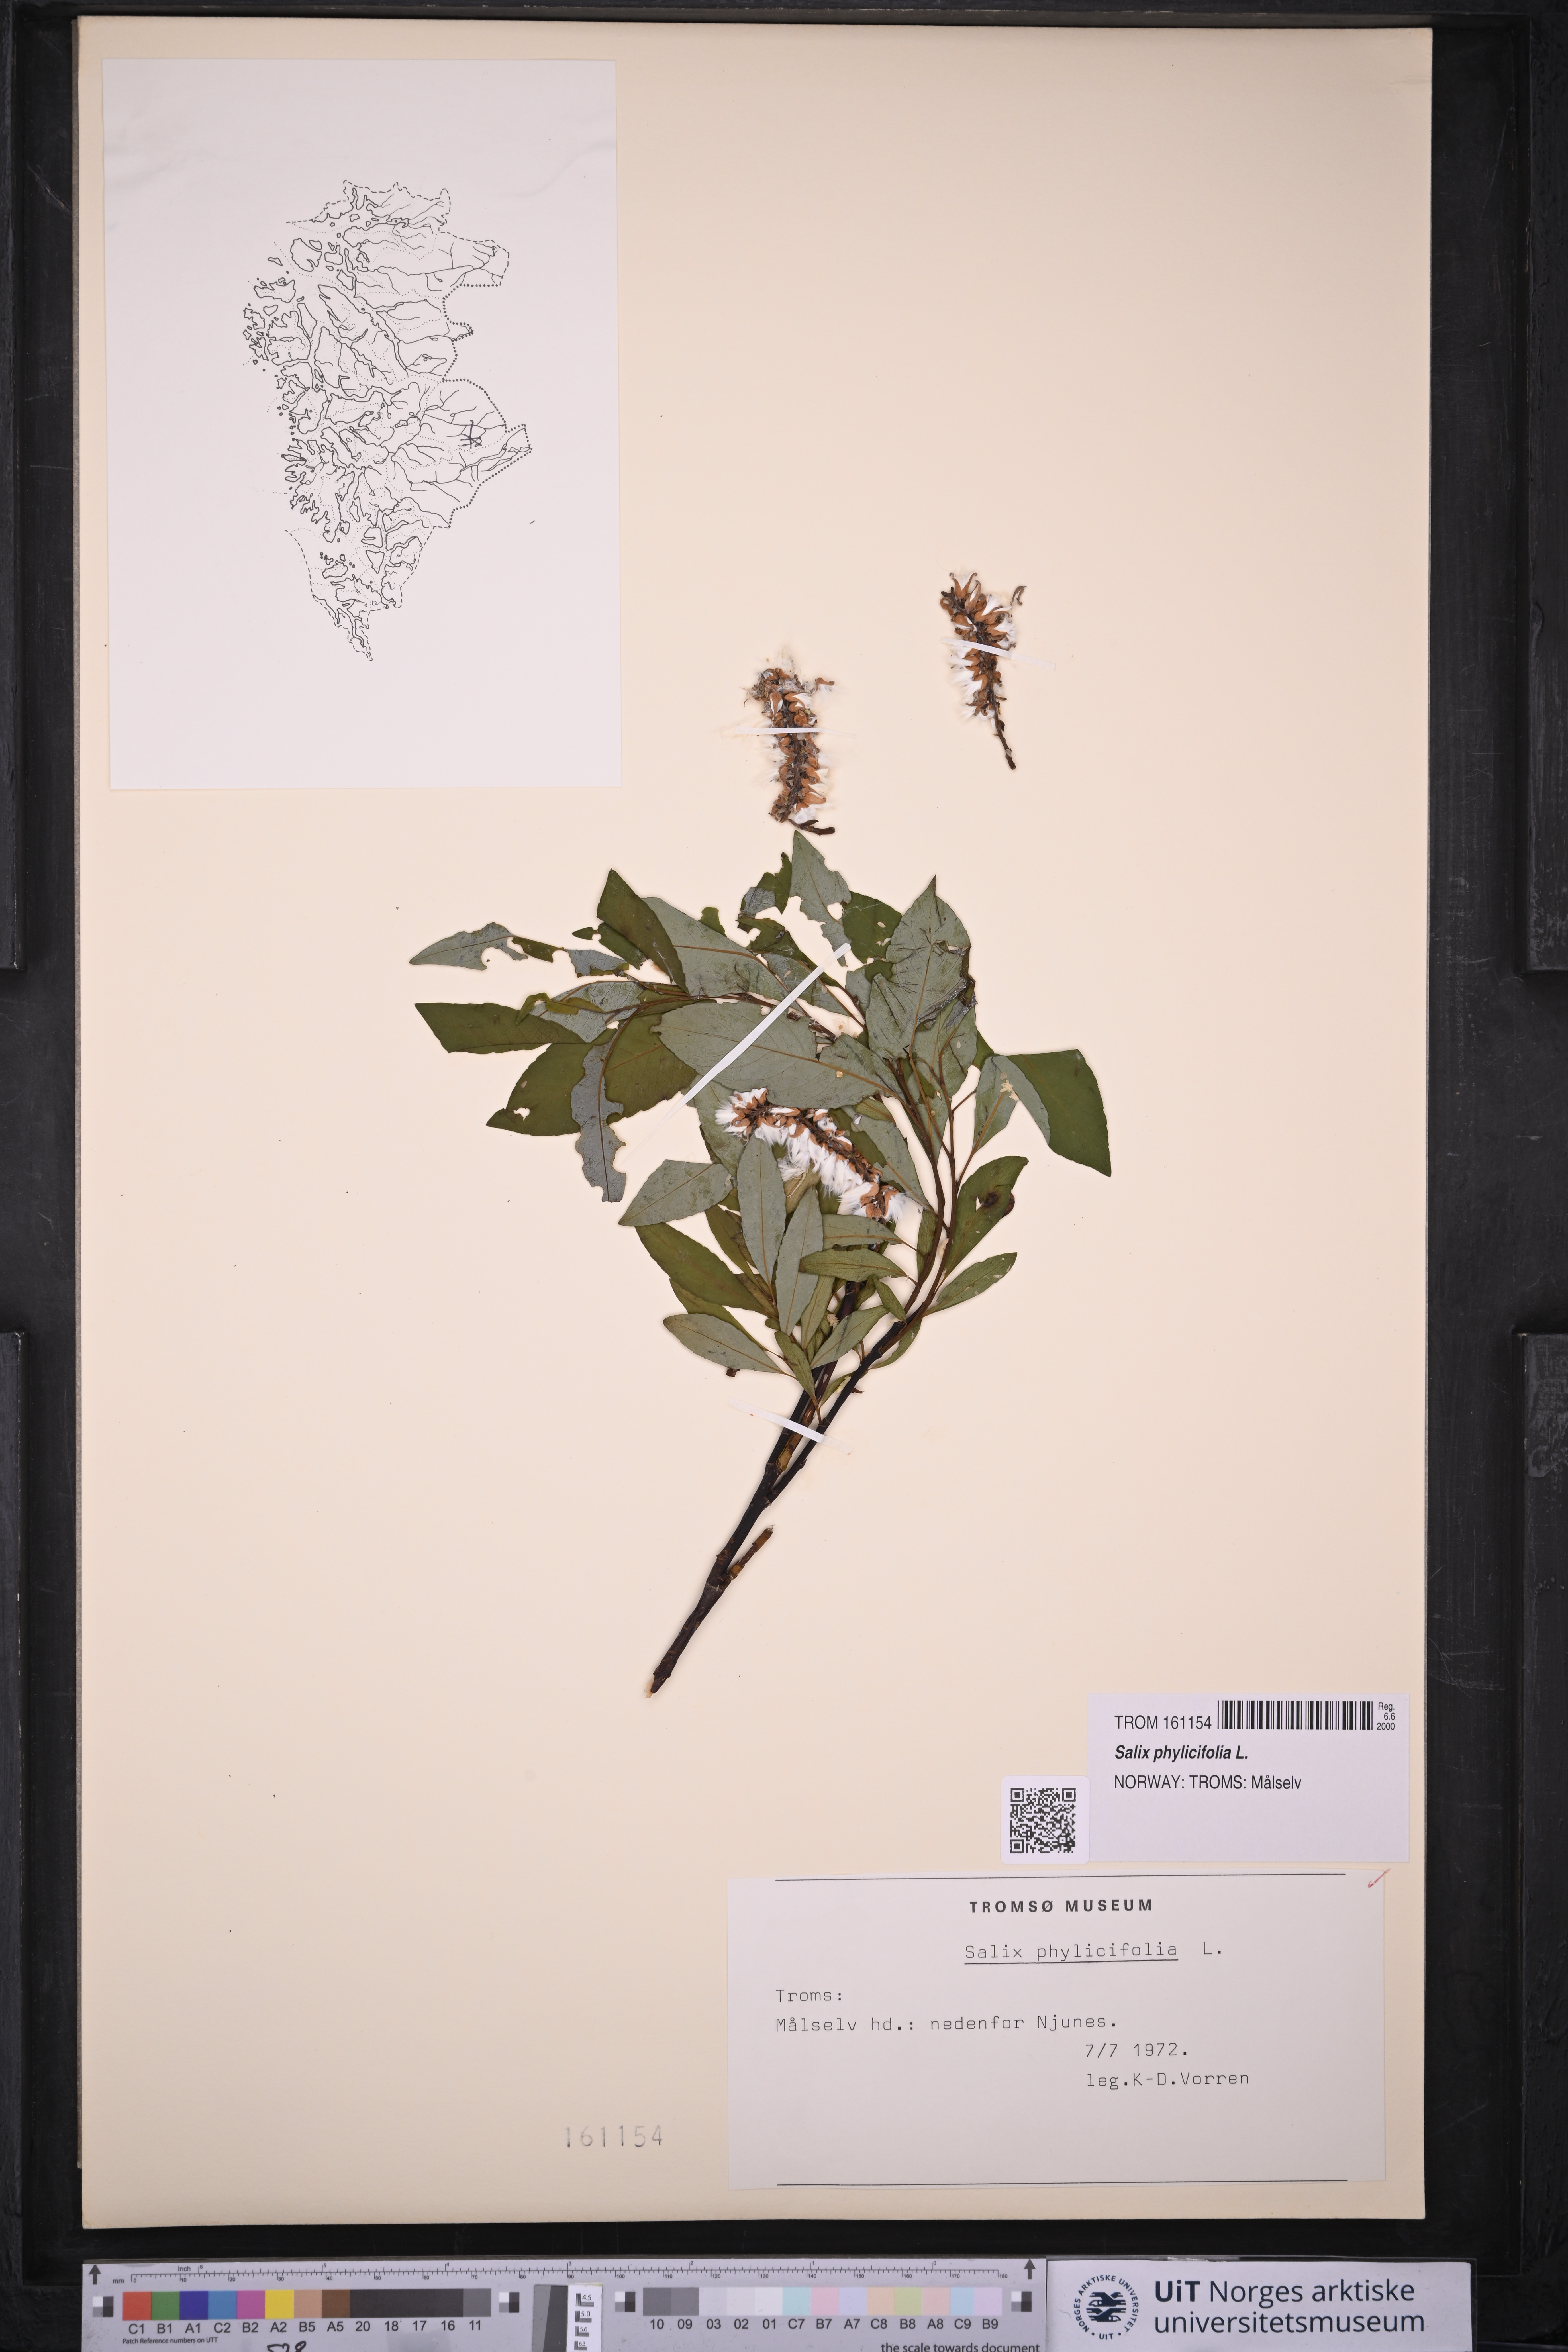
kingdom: Plantae
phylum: Tracheophyta
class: Magnoliopsida
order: Malpighiales
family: Salicaceae
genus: Salix
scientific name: Salix phylicifolia
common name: Tea-leaved willow
